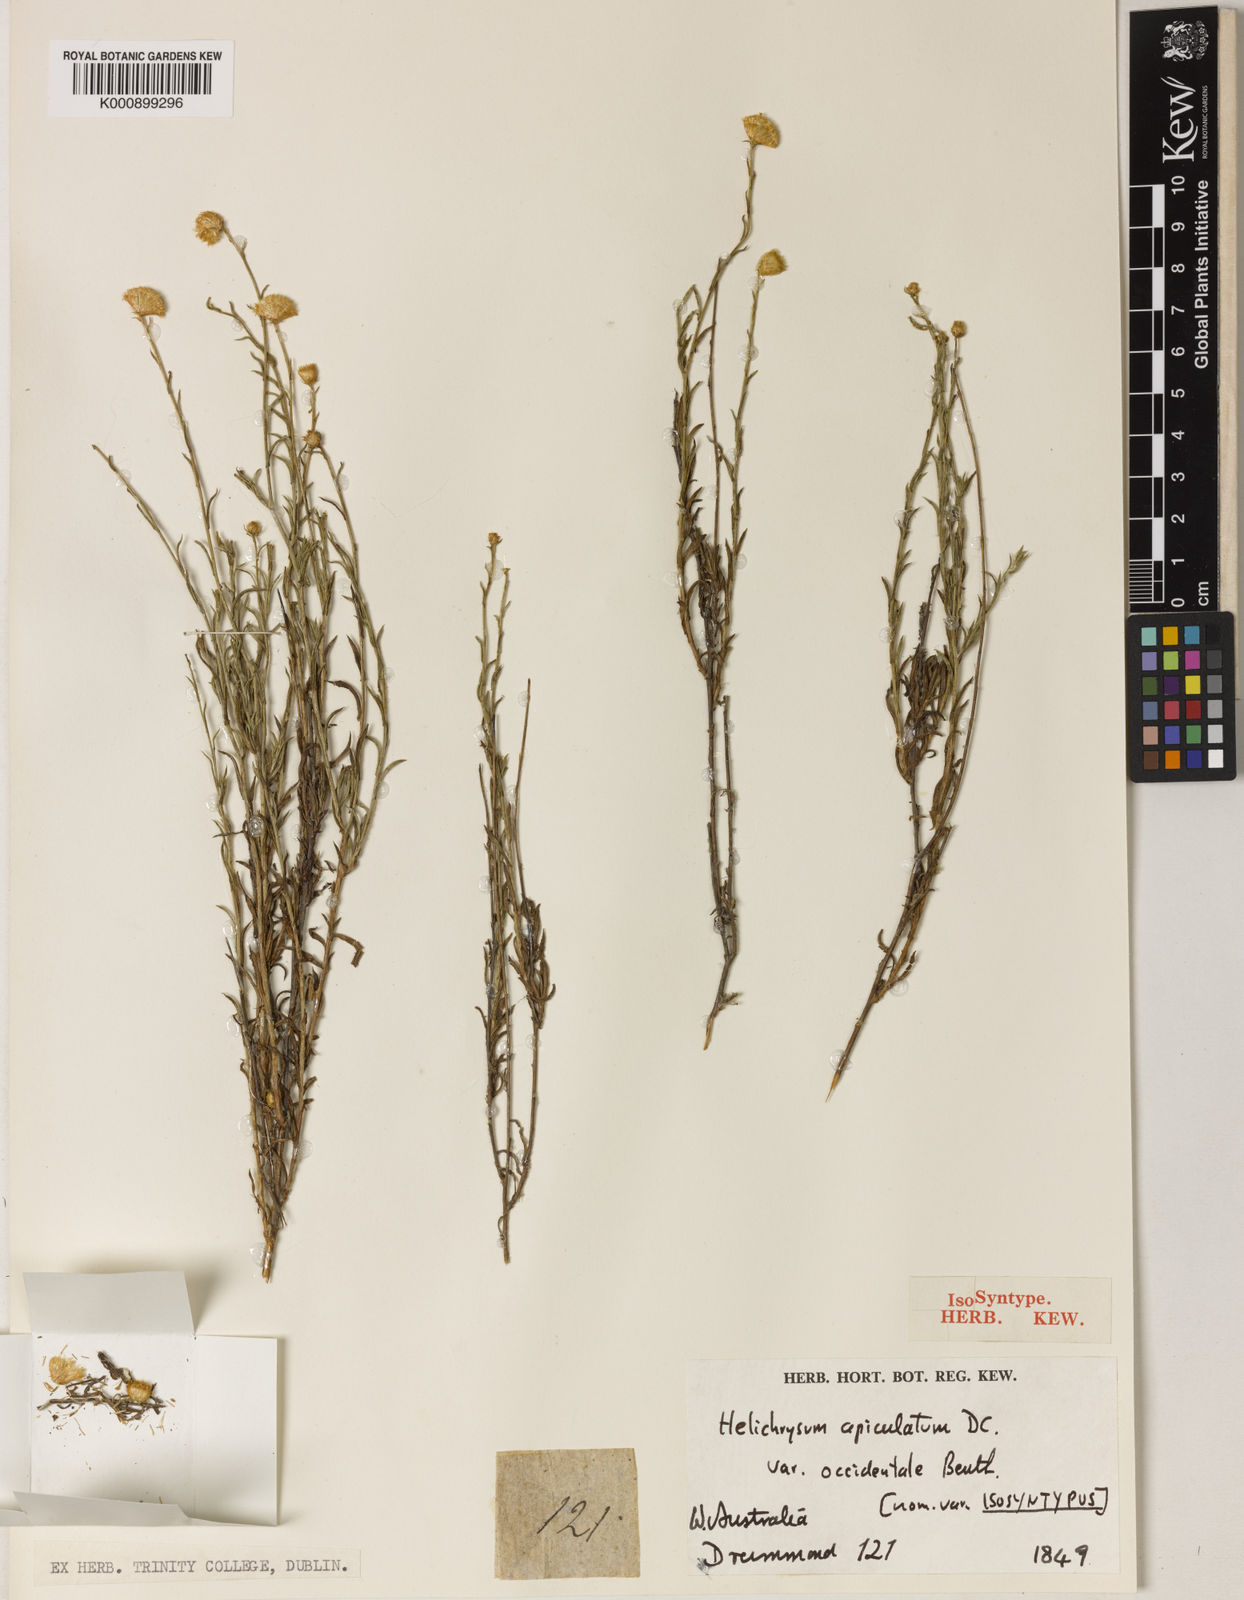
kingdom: Plantae
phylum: Tracheophyta
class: Magnoliopsida
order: Asterales
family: Asteraceae
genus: Chrysocephalum
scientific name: Chrysocephalum apiculatum
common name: Common everlasting
